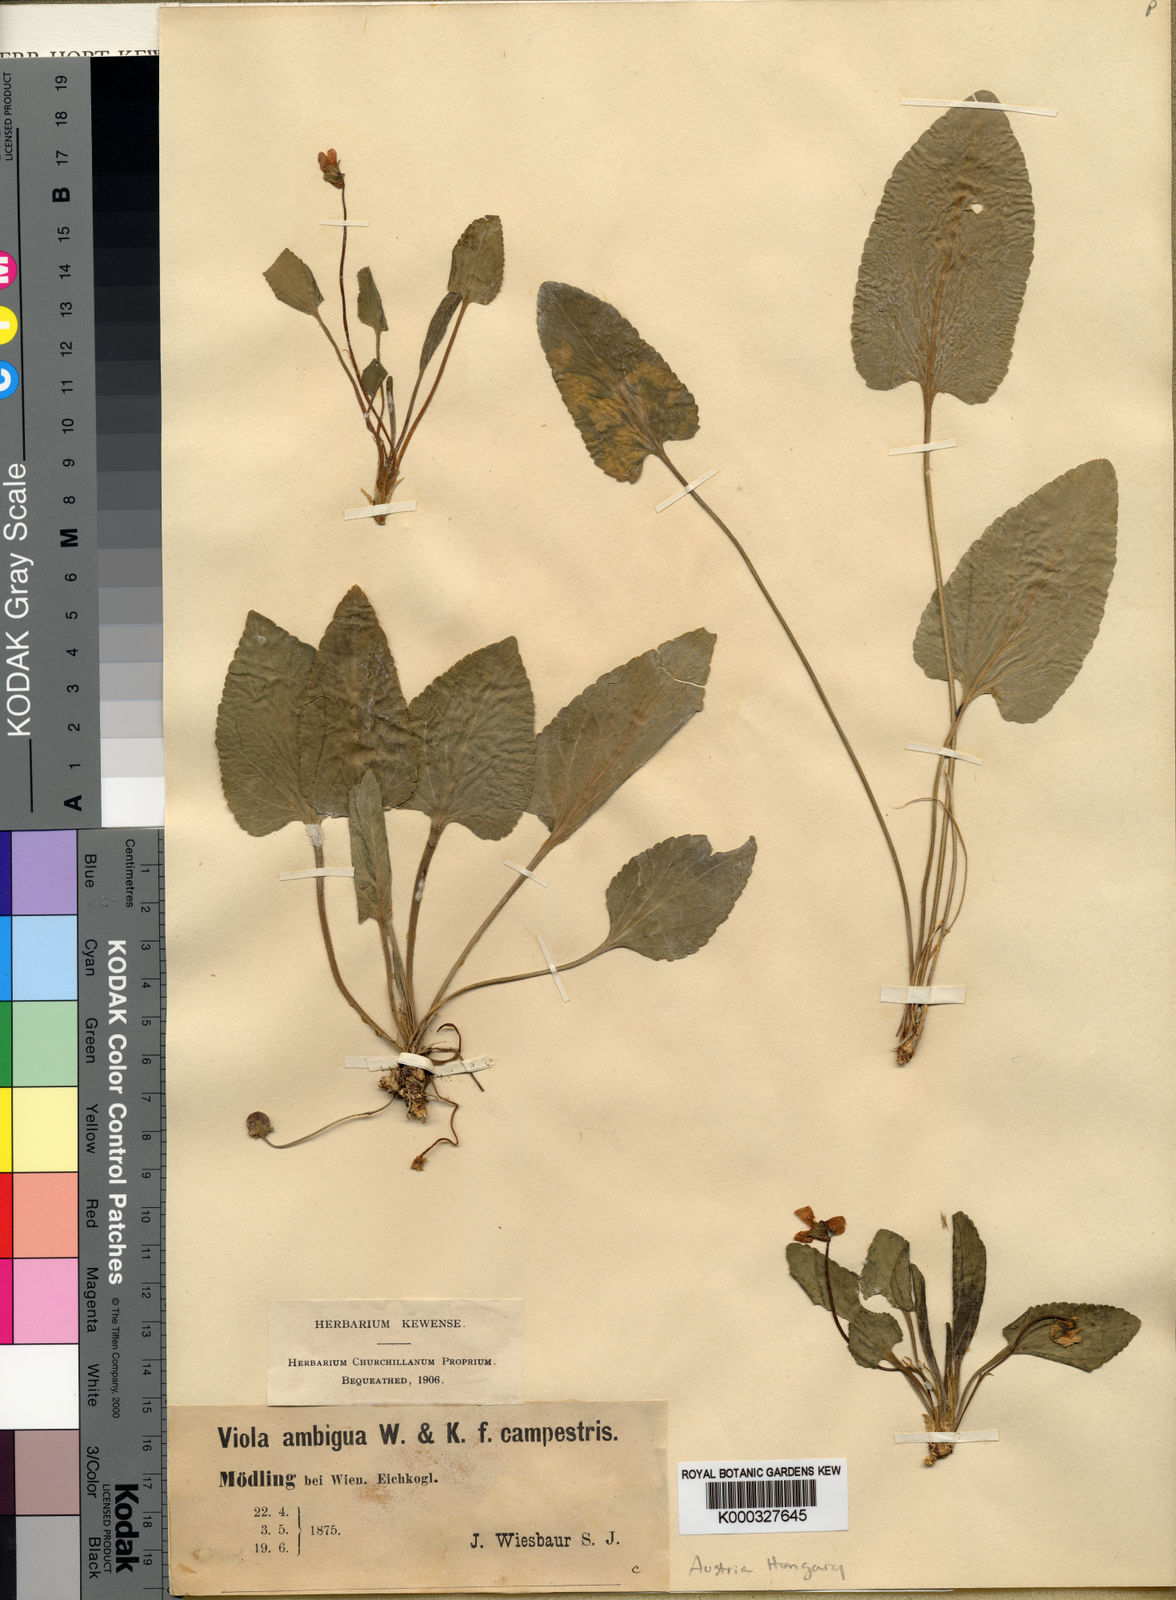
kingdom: Plantae
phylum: Tracheophyta
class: Magnoliopsida
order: Malpighiales
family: Violaceae
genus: Viola
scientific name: Viola ambigua
